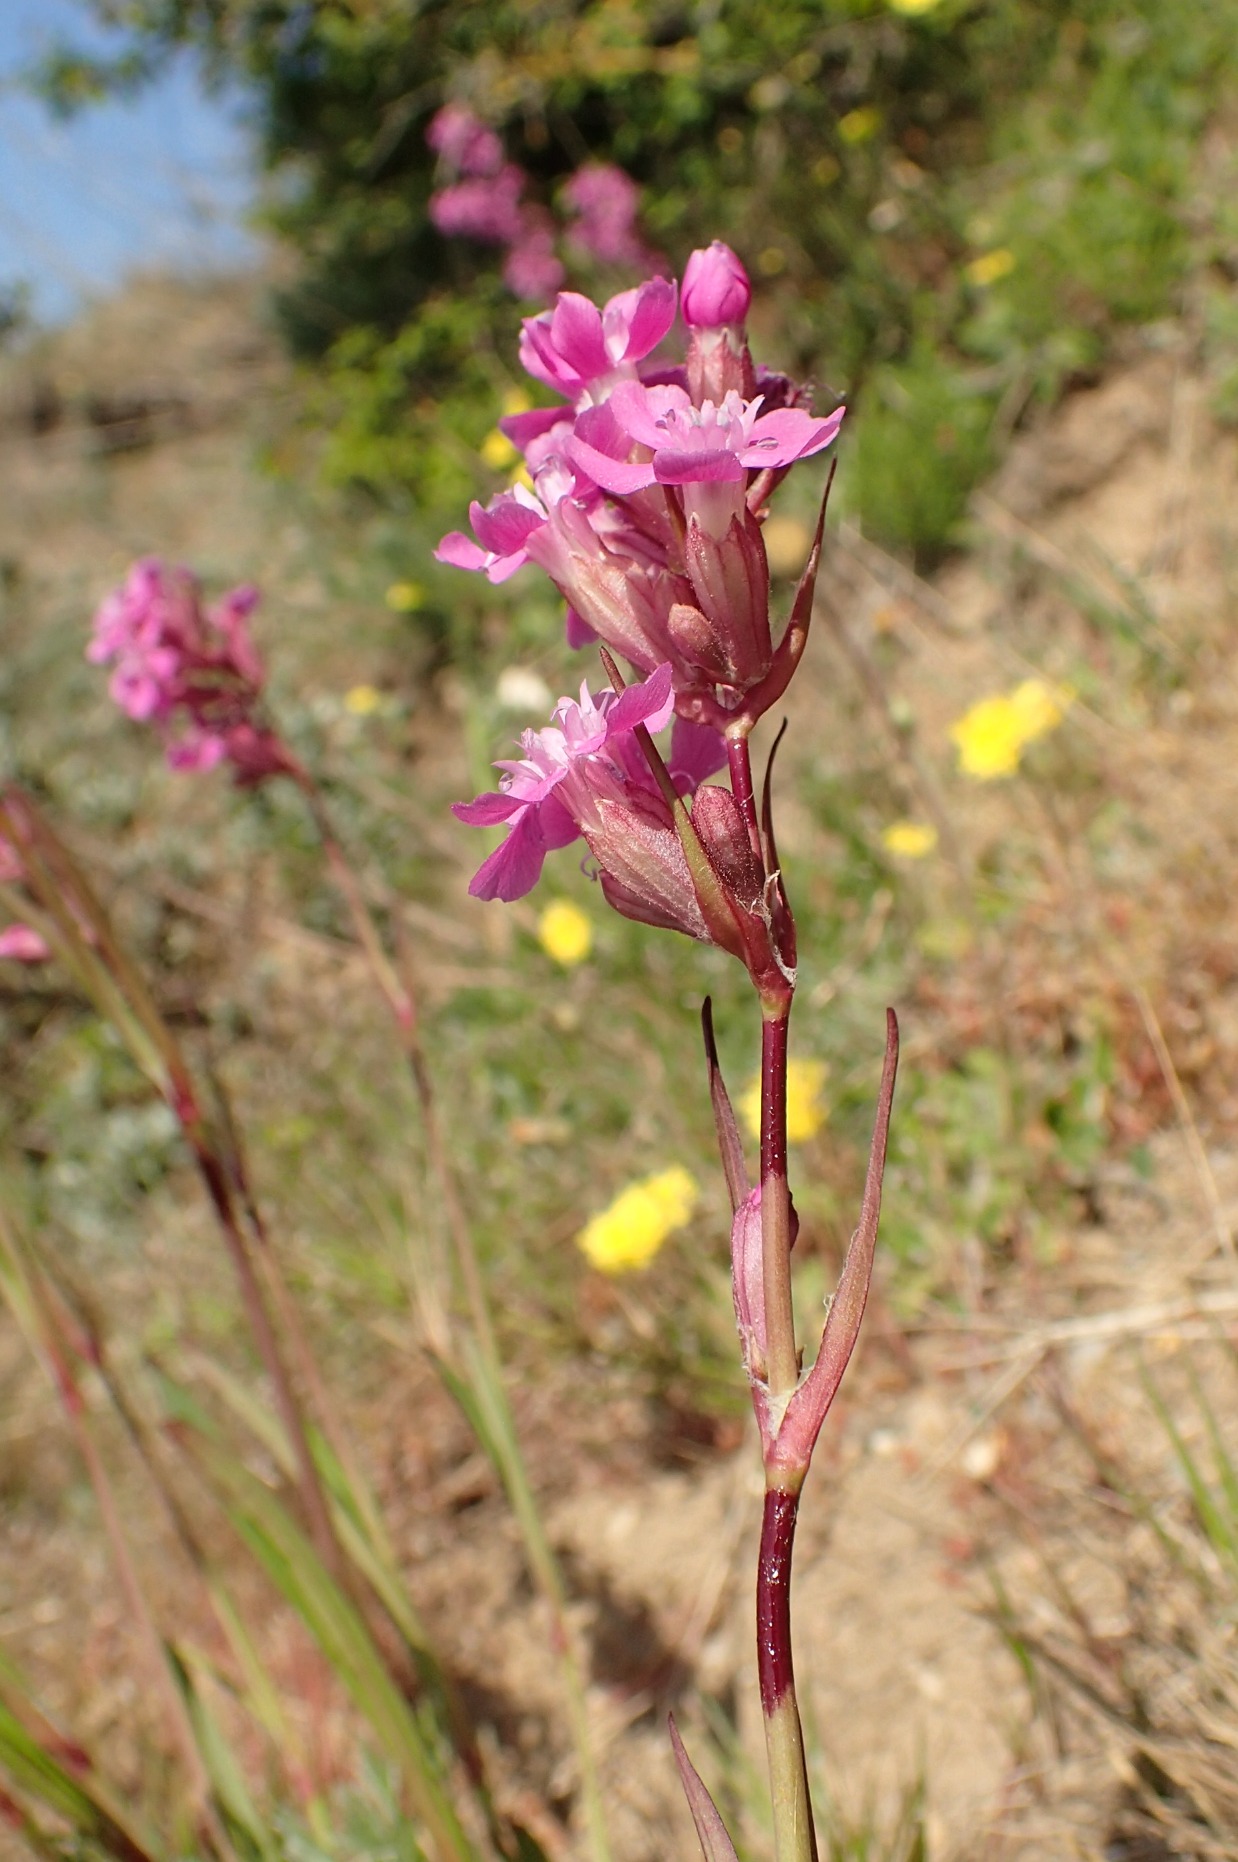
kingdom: Plantae
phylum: Tracheophyta
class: Magnoliopsida
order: Caryophyllales
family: Caryophyllaceae
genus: Viscaria
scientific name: Viscaria vulgaris
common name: Tjærenellike
